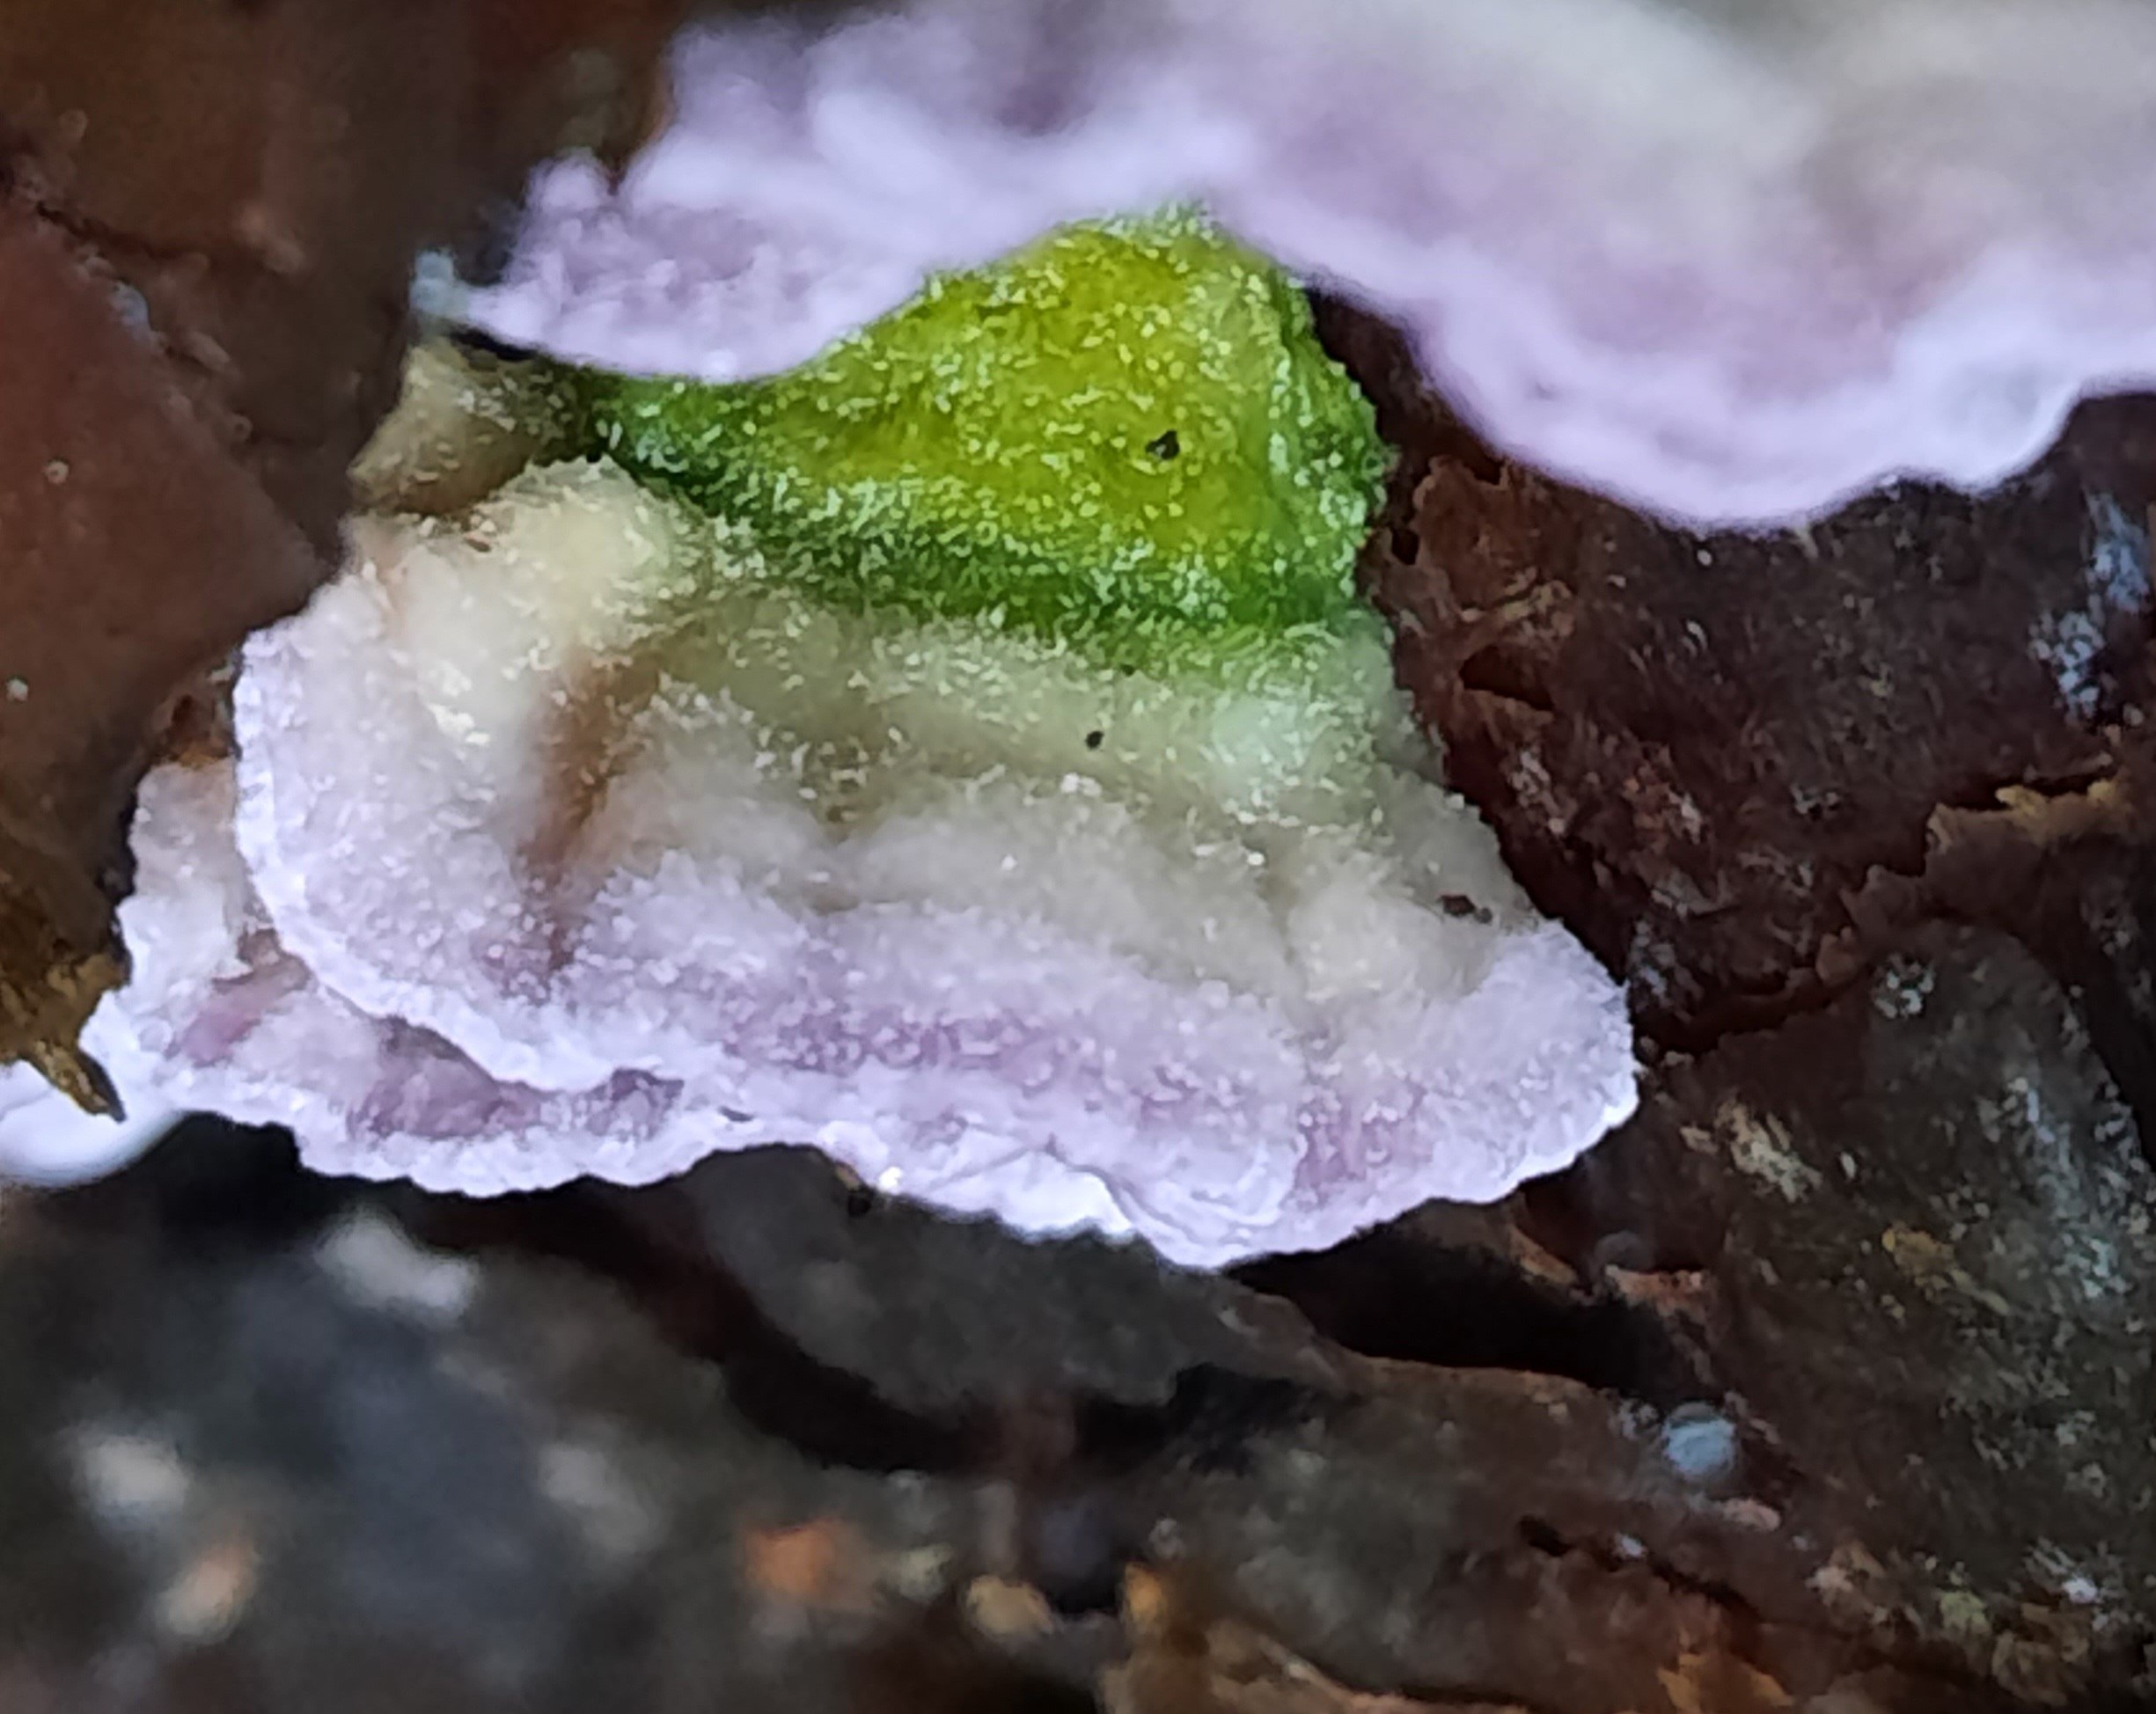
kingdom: Fungi
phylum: Basidiomycota
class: Agaricomycetes
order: Hymenochaetales
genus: Trichaptum
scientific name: Trichaptum abietinum
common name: almindelig violporesvamp
